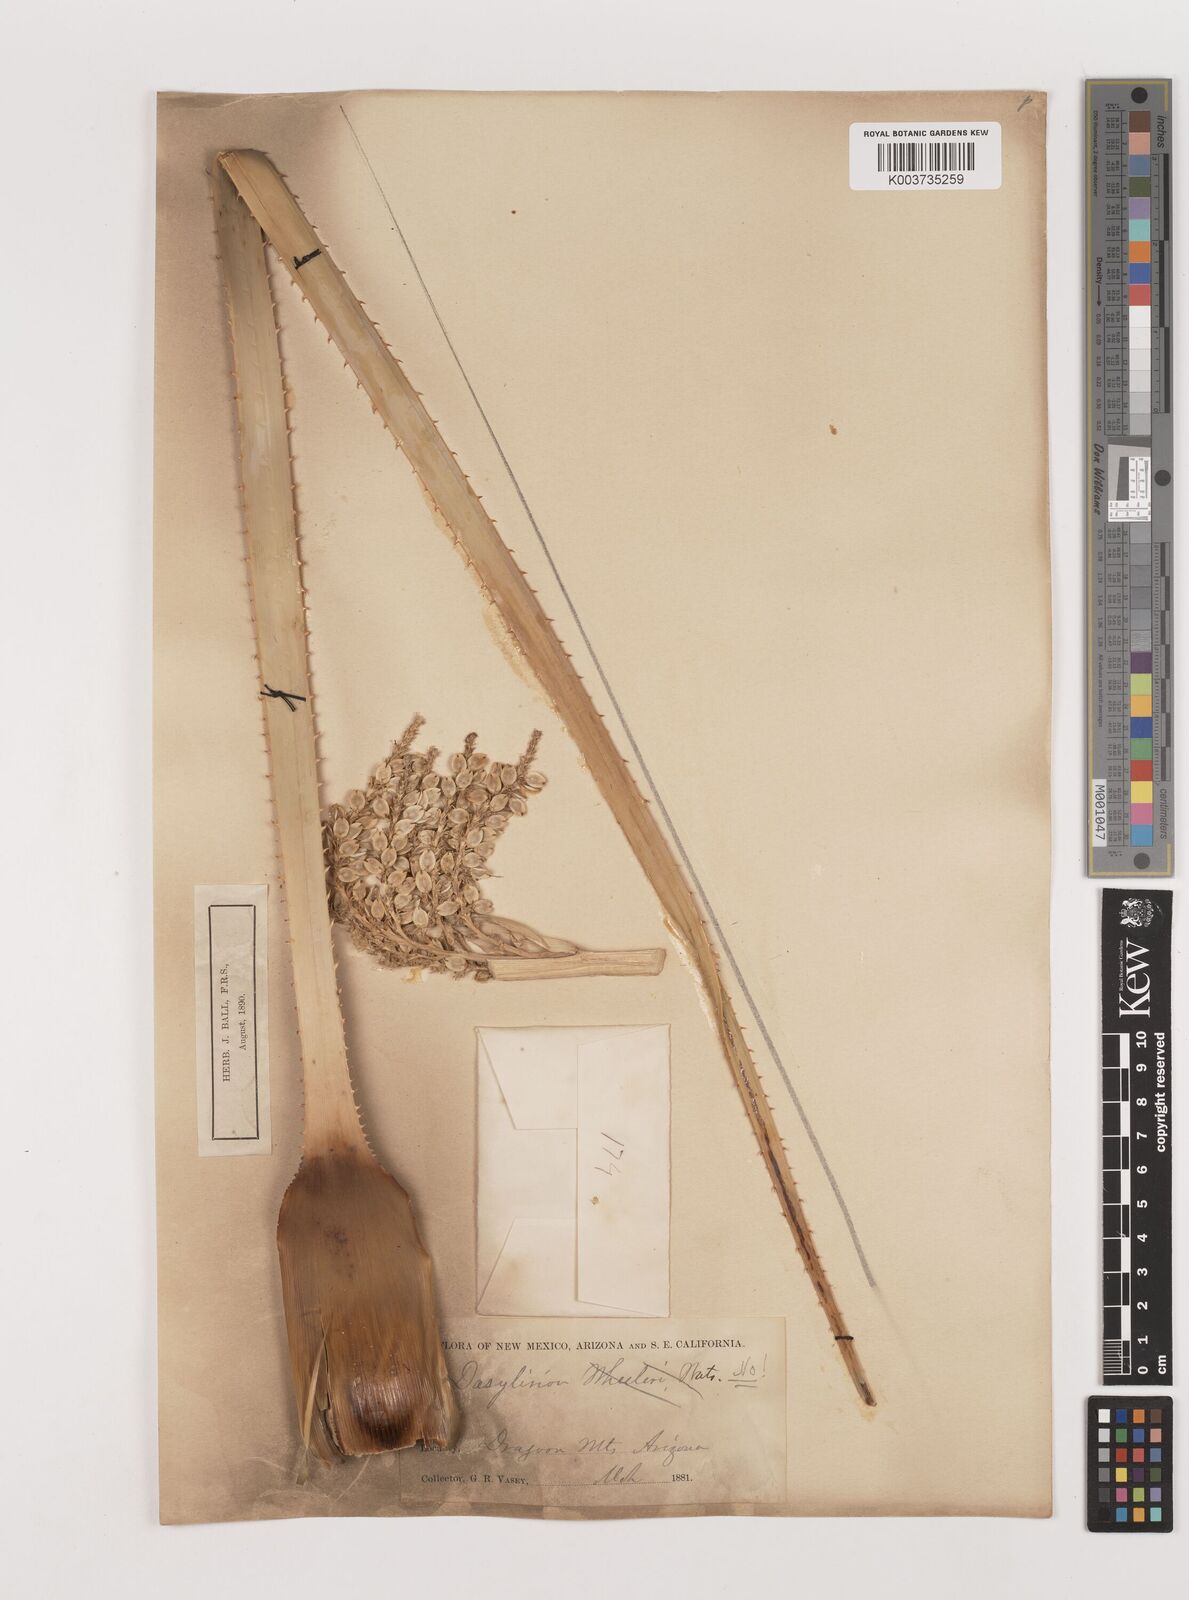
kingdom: Plantae
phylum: Tracheophyta
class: Liliopsida
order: Asparagales
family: Asparagaceae
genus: Dasylirion
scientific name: Dasylirion wheeleri
